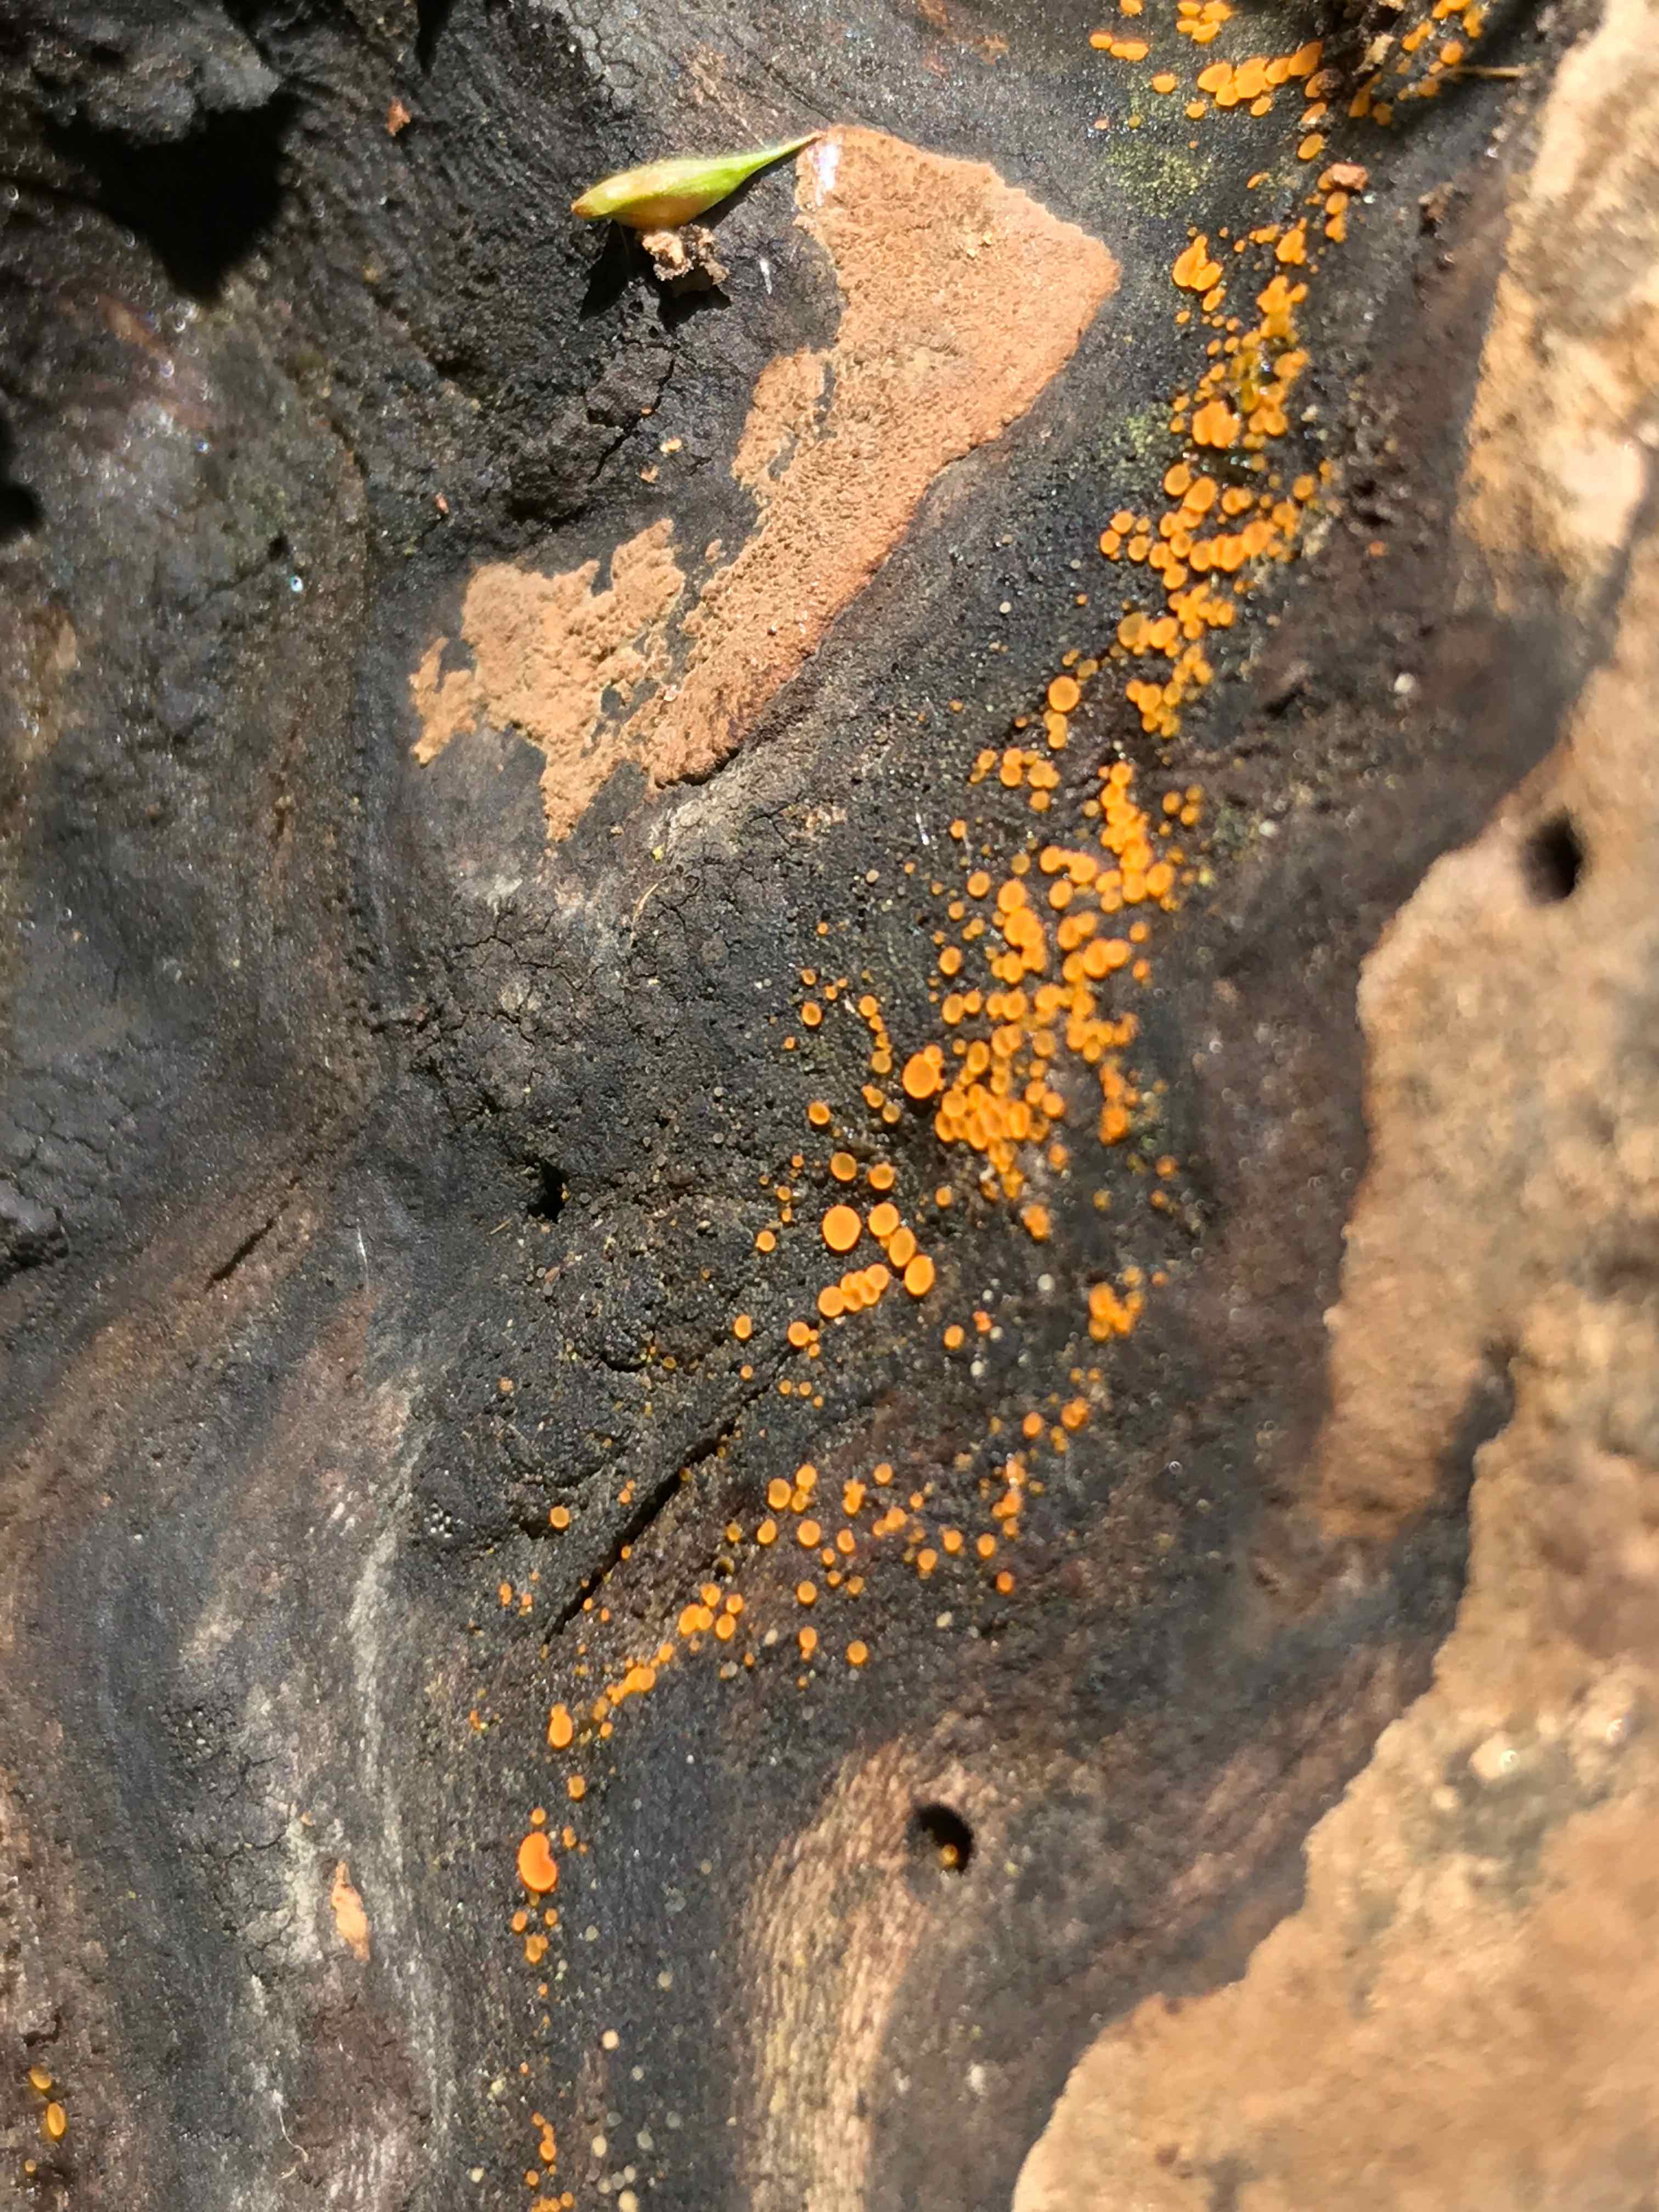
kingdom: Fungi
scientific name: Fungi
